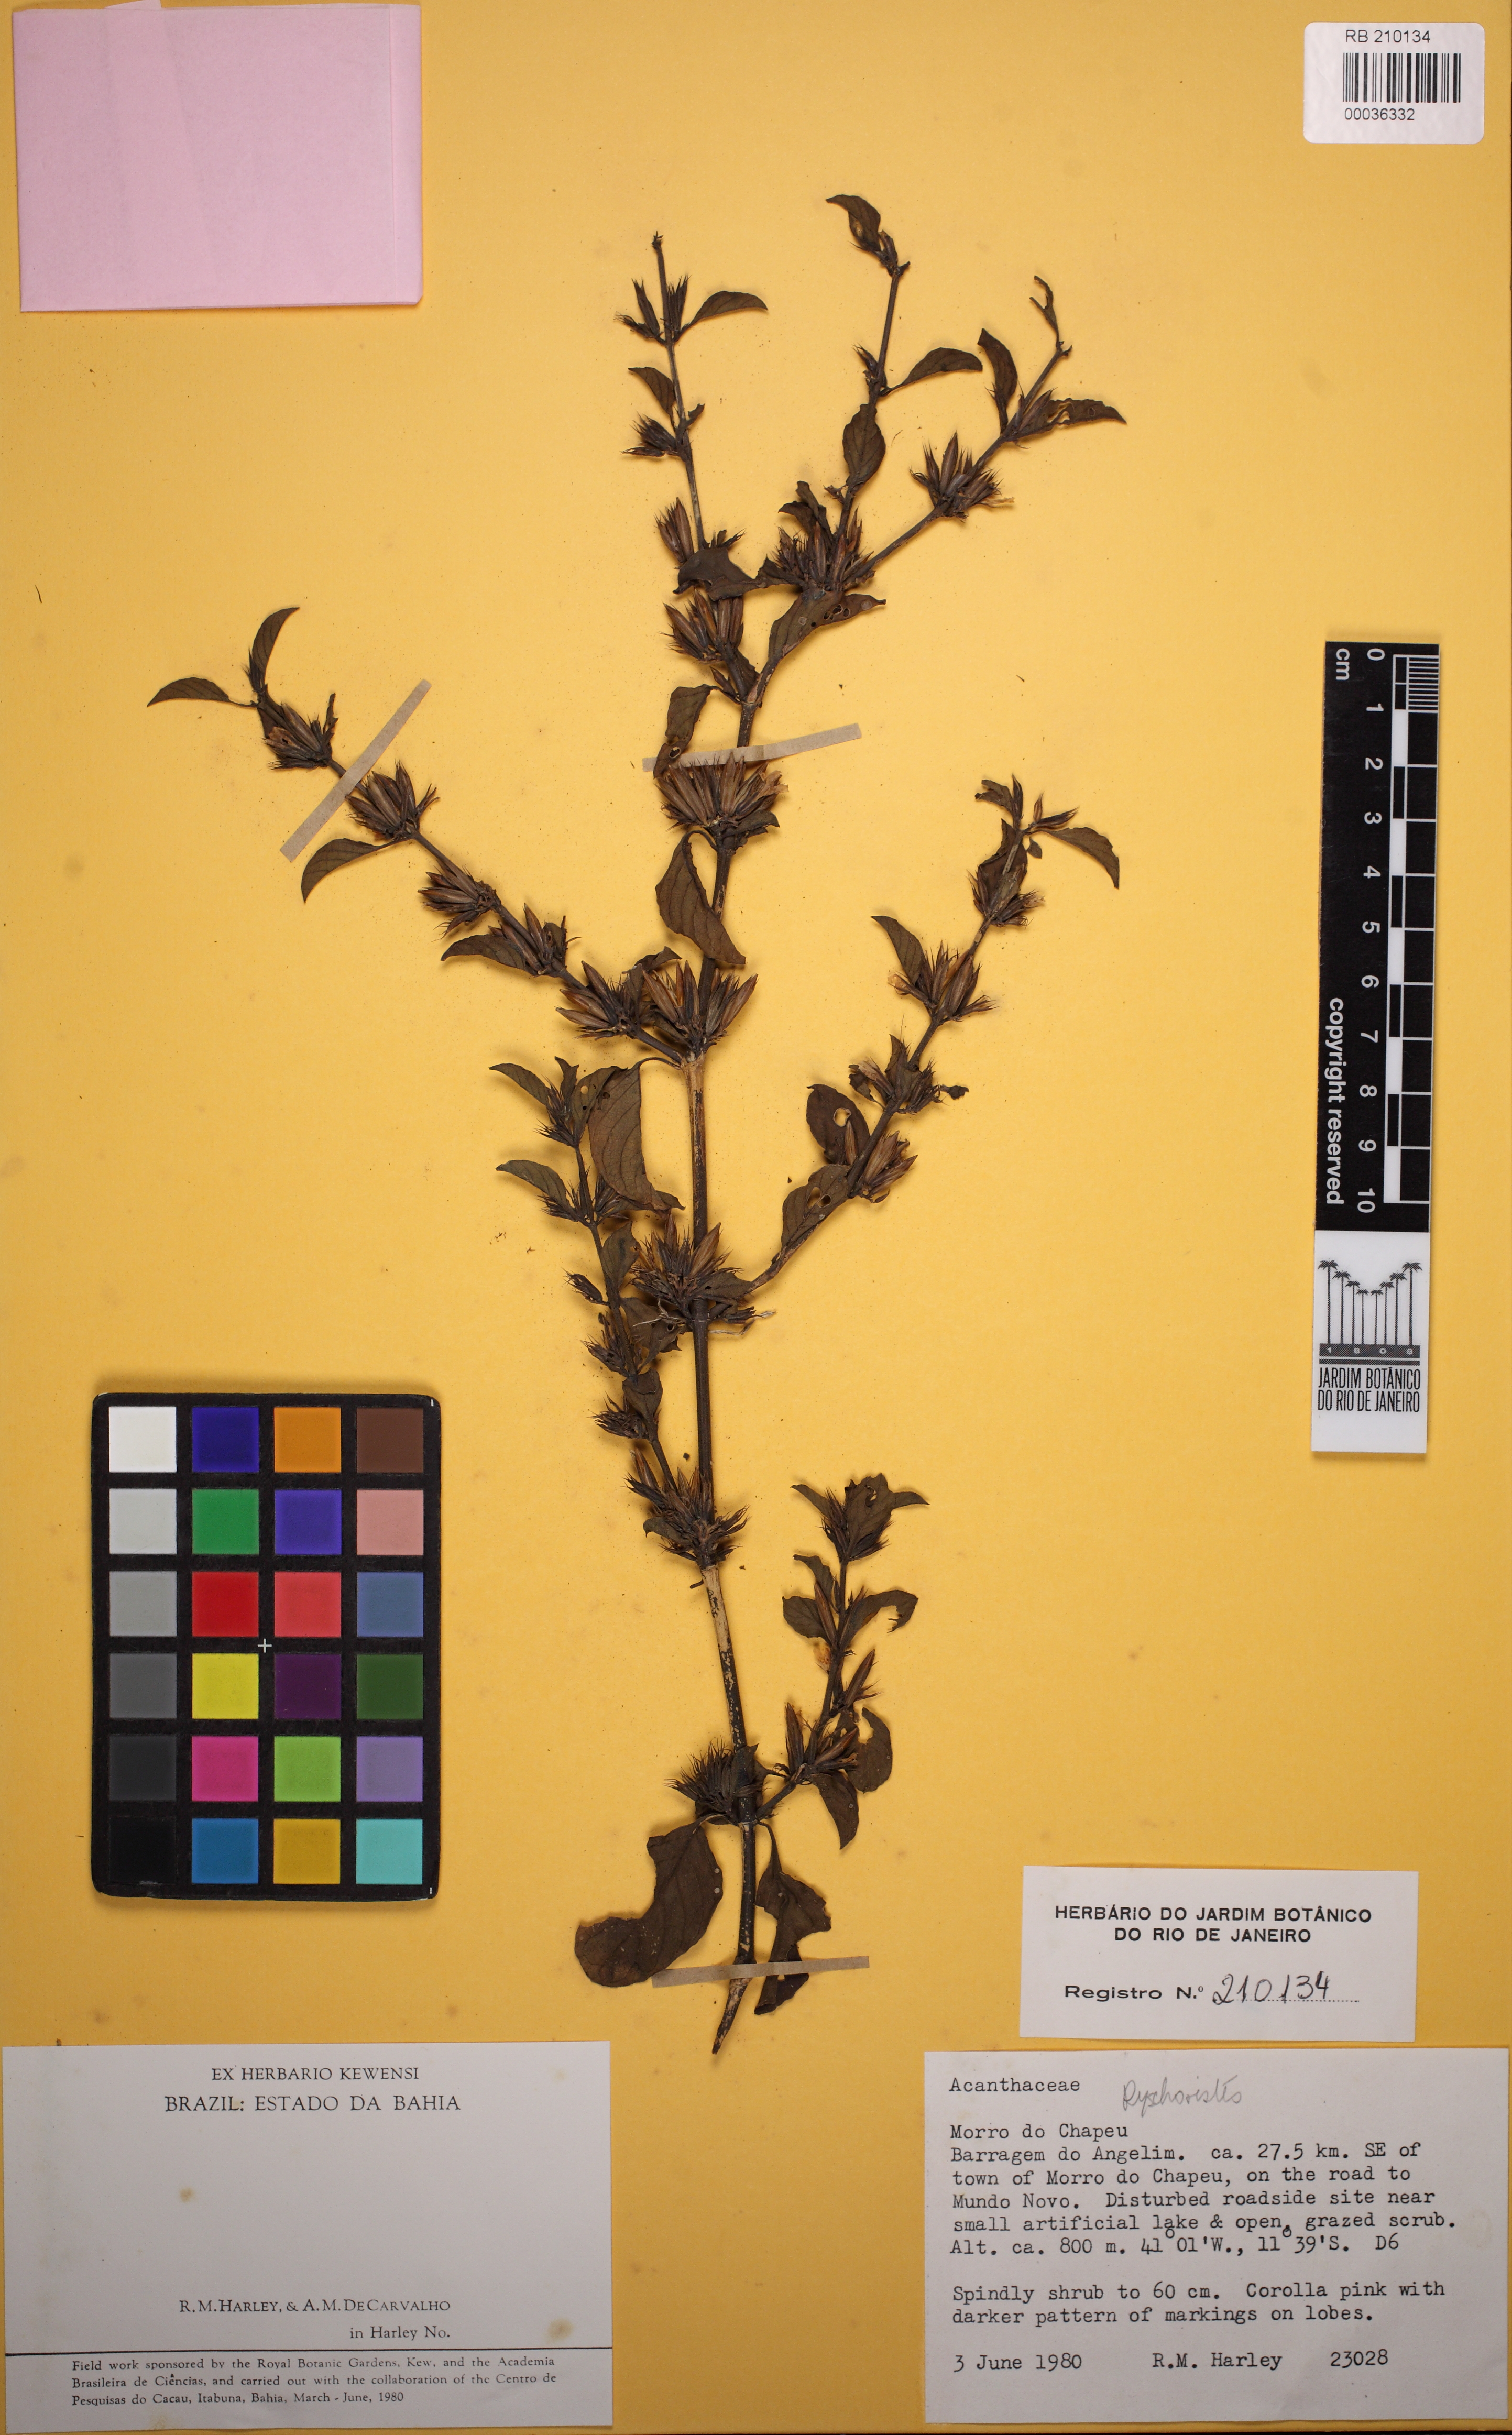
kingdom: Plantae
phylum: Tracheophyta
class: Magnoliopsida
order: Lamiales
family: Acanthaceae
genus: Dyschoriste
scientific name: Dyschoriste
